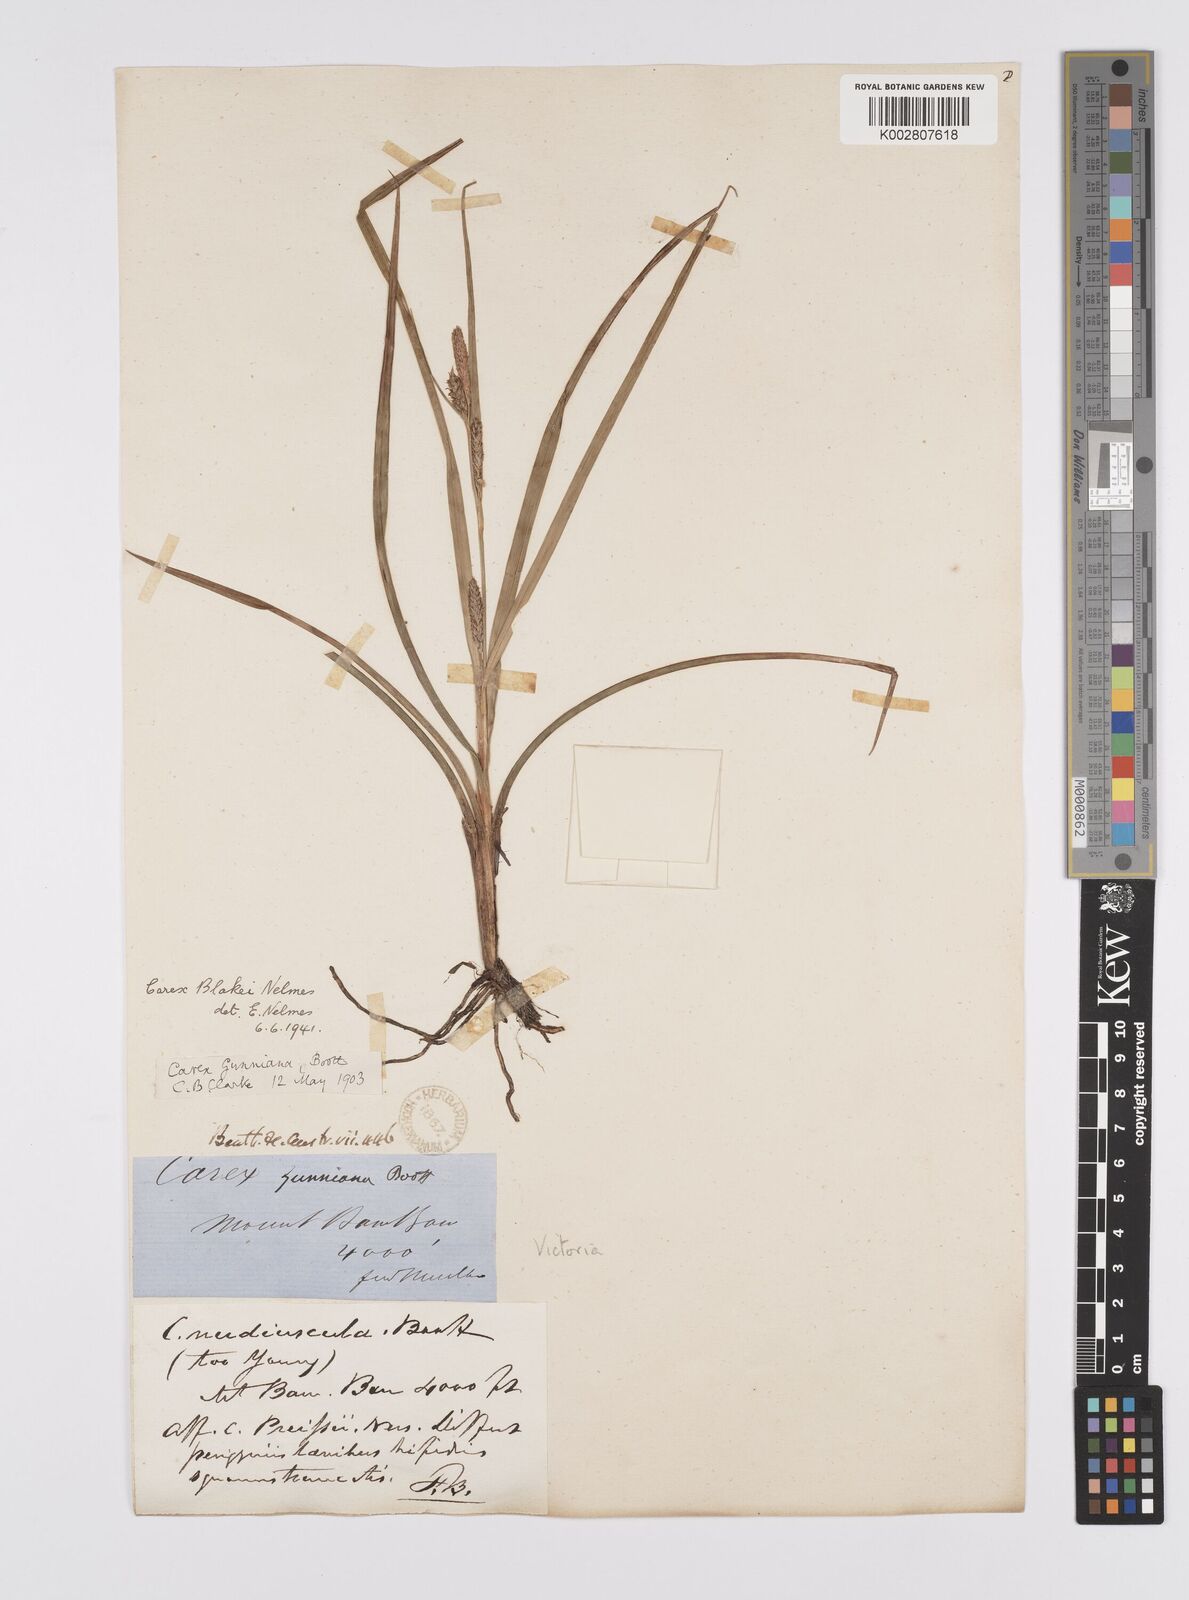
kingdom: Plantae
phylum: Tracheophyta
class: Liliopsida
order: Poales
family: Cyperaceae
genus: Carex
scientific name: Carex blakei
